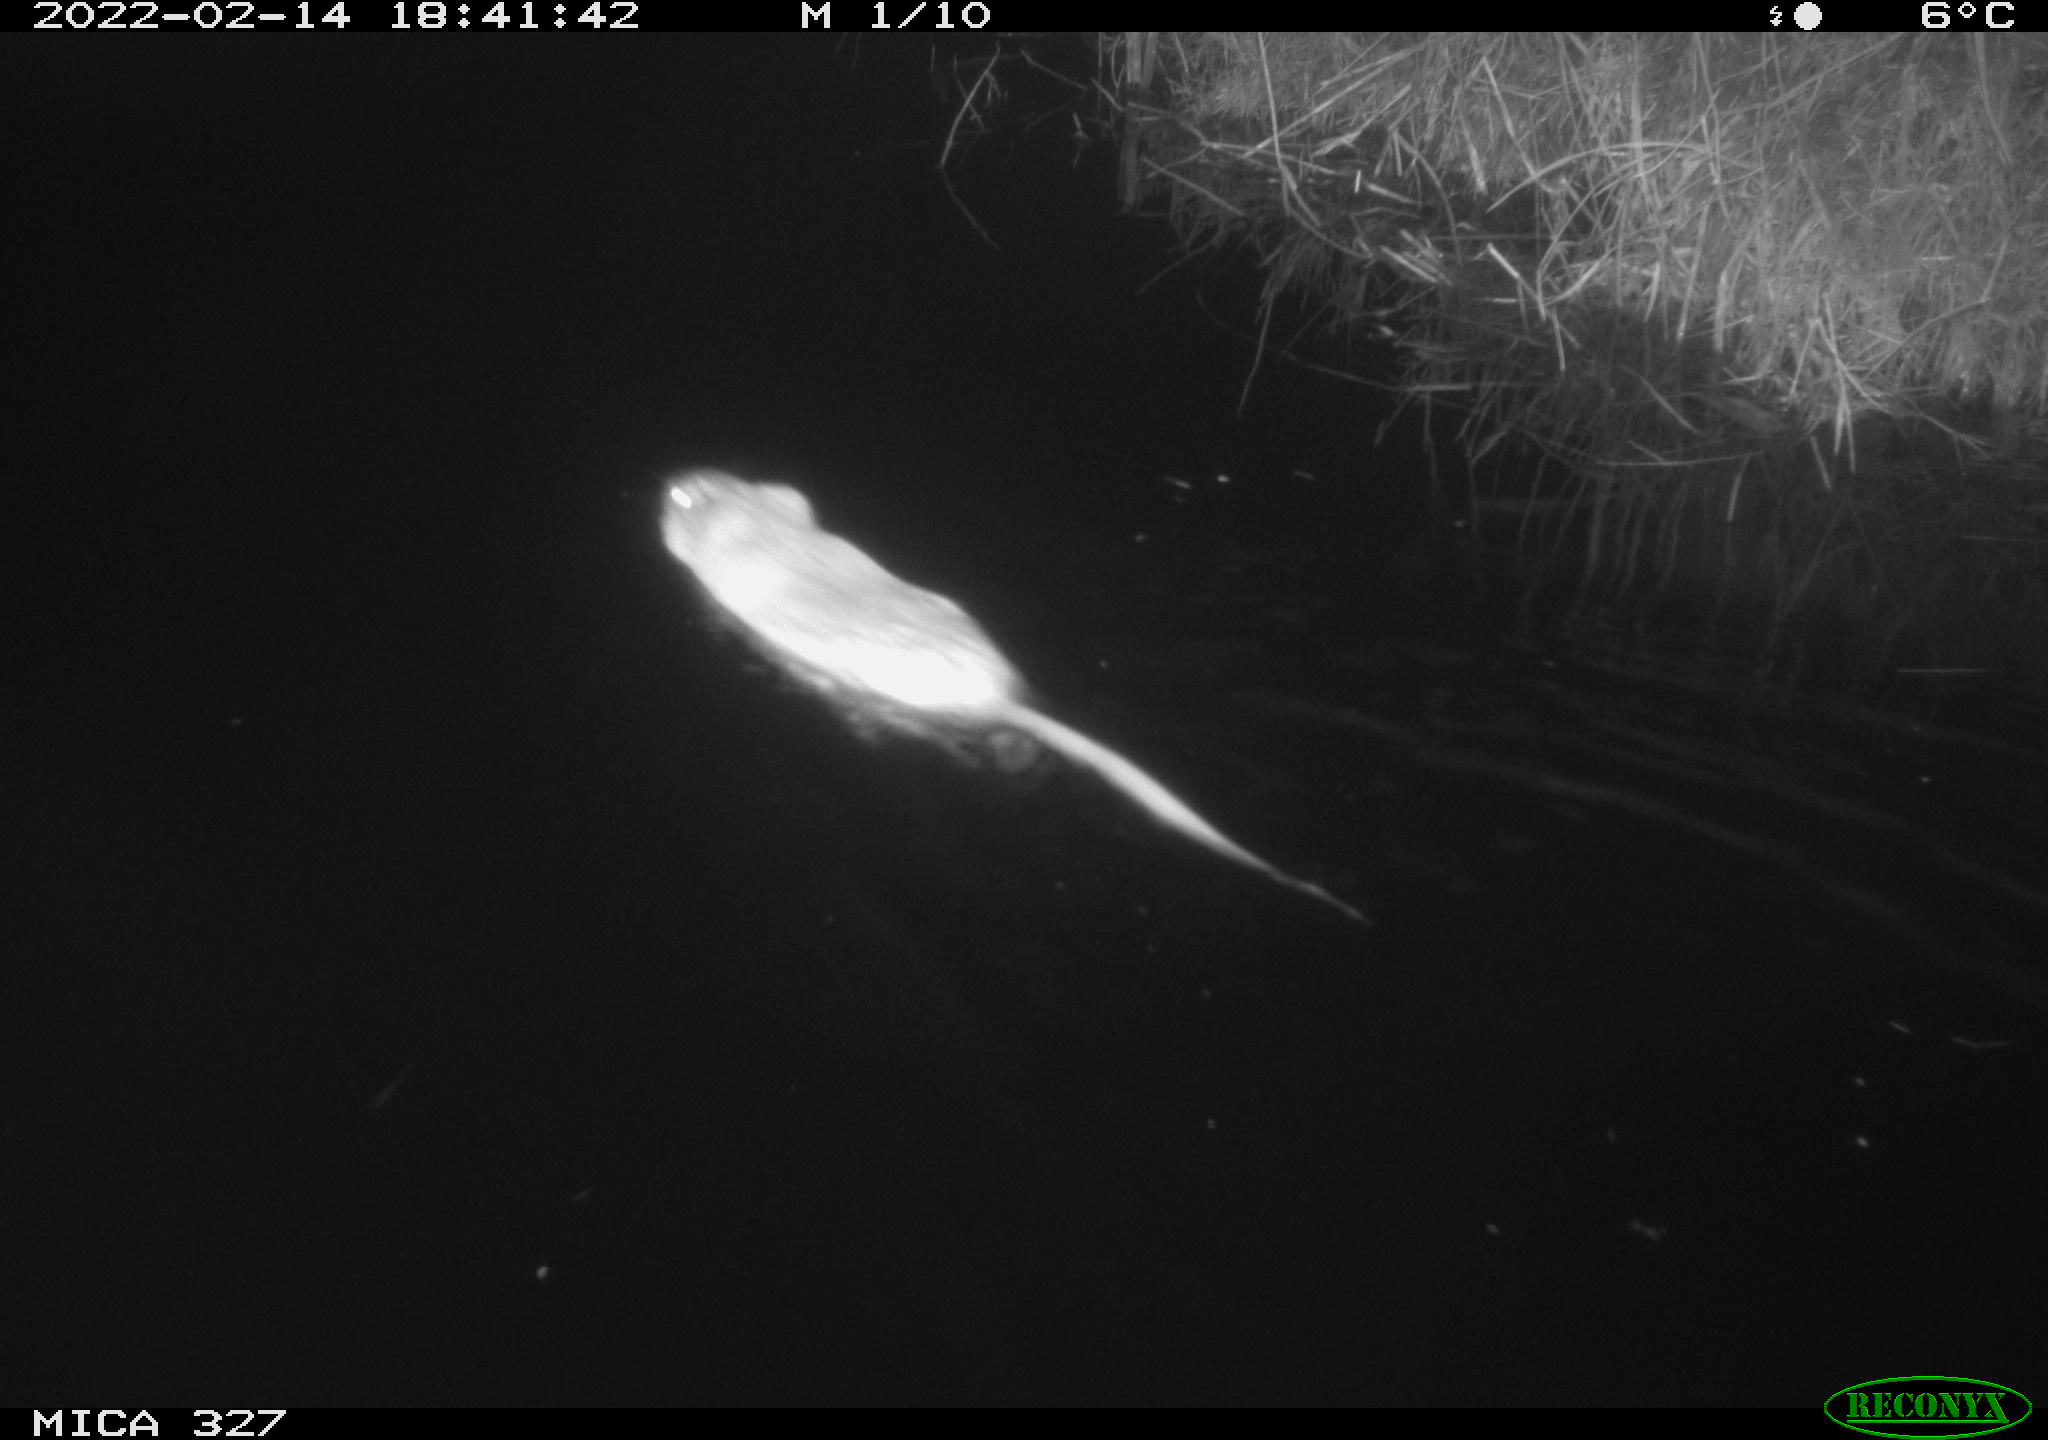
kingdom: Animalia
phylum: Chordata
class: Mammalia
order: Rodentia
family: Cricetidae
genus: Ondatra
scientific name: Ondatra zibethicus
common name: Muskrat
